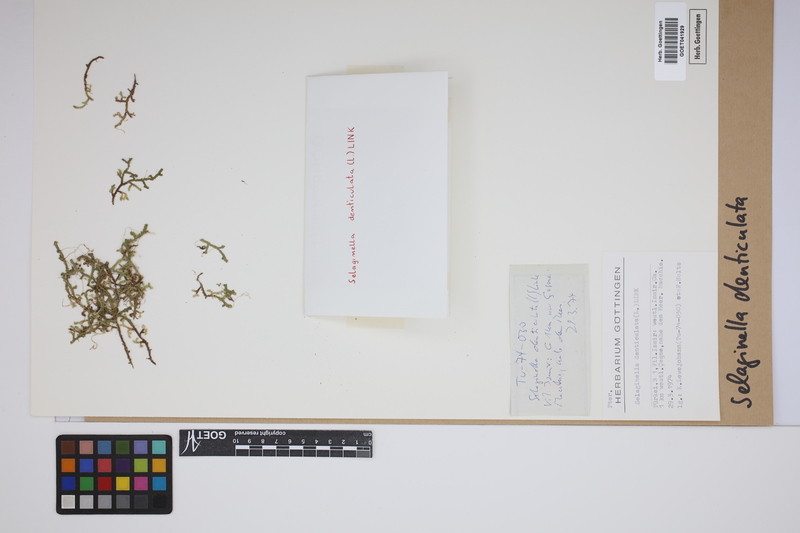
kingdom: Plantae
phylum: Tracheophyta
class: Lycopodiopsida
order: Selaginellales
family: Selaginellaceae
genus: Selaginella
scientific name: Selaginella denticulata
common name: Toothed-leaved clubmoss
